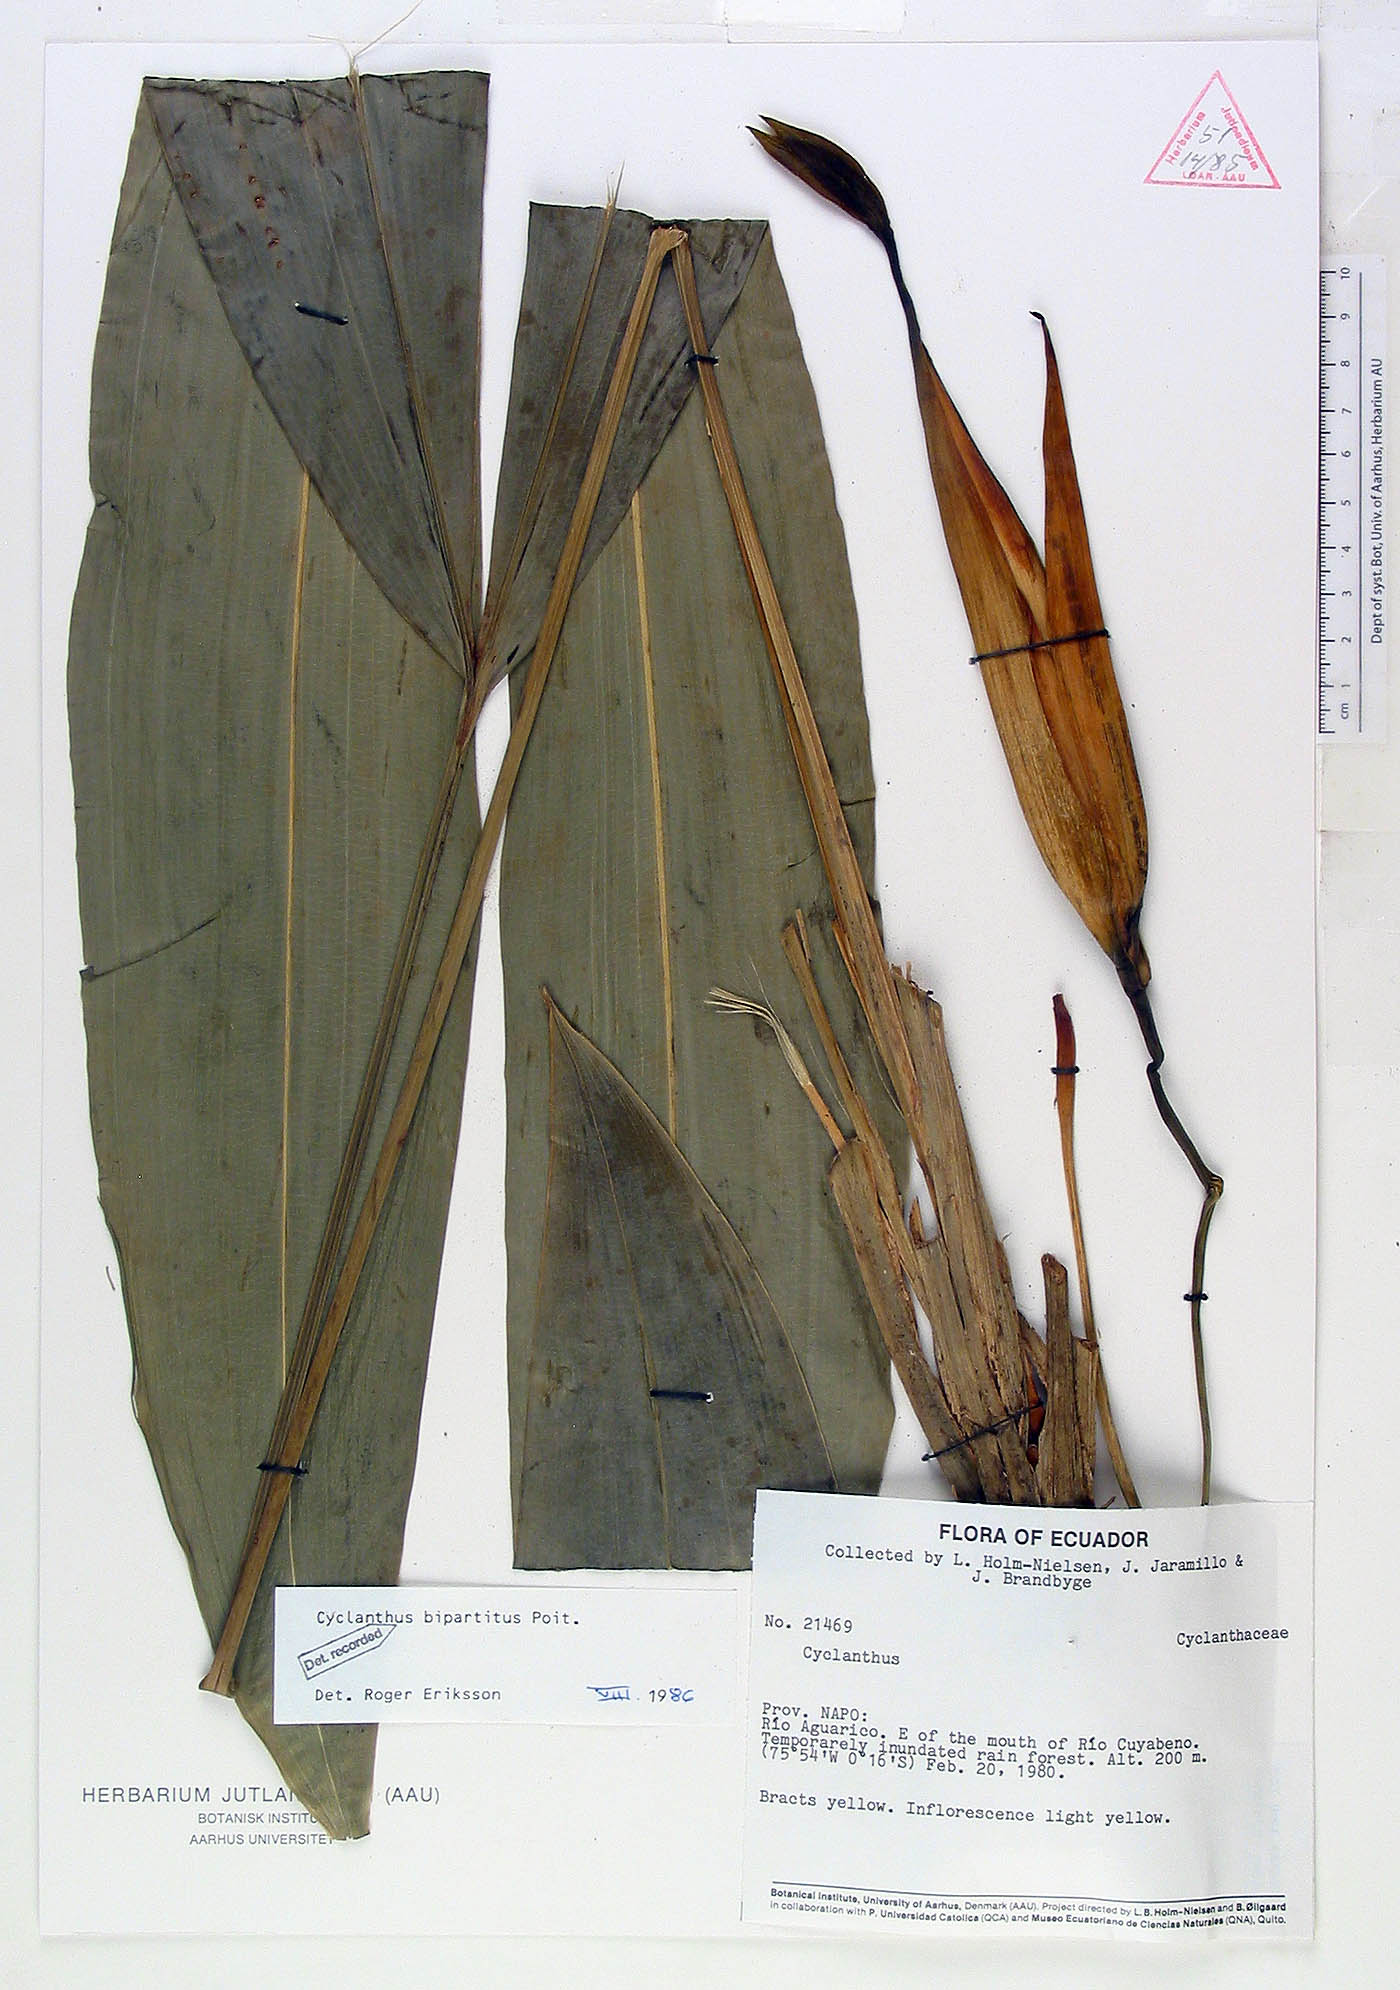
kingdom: Plantae
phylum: Tracheophyta
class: Liliopsida
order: Pandanales
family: Cyclanthaceae
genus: Cyclanthus
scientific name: Cyclanthus bipartitus
